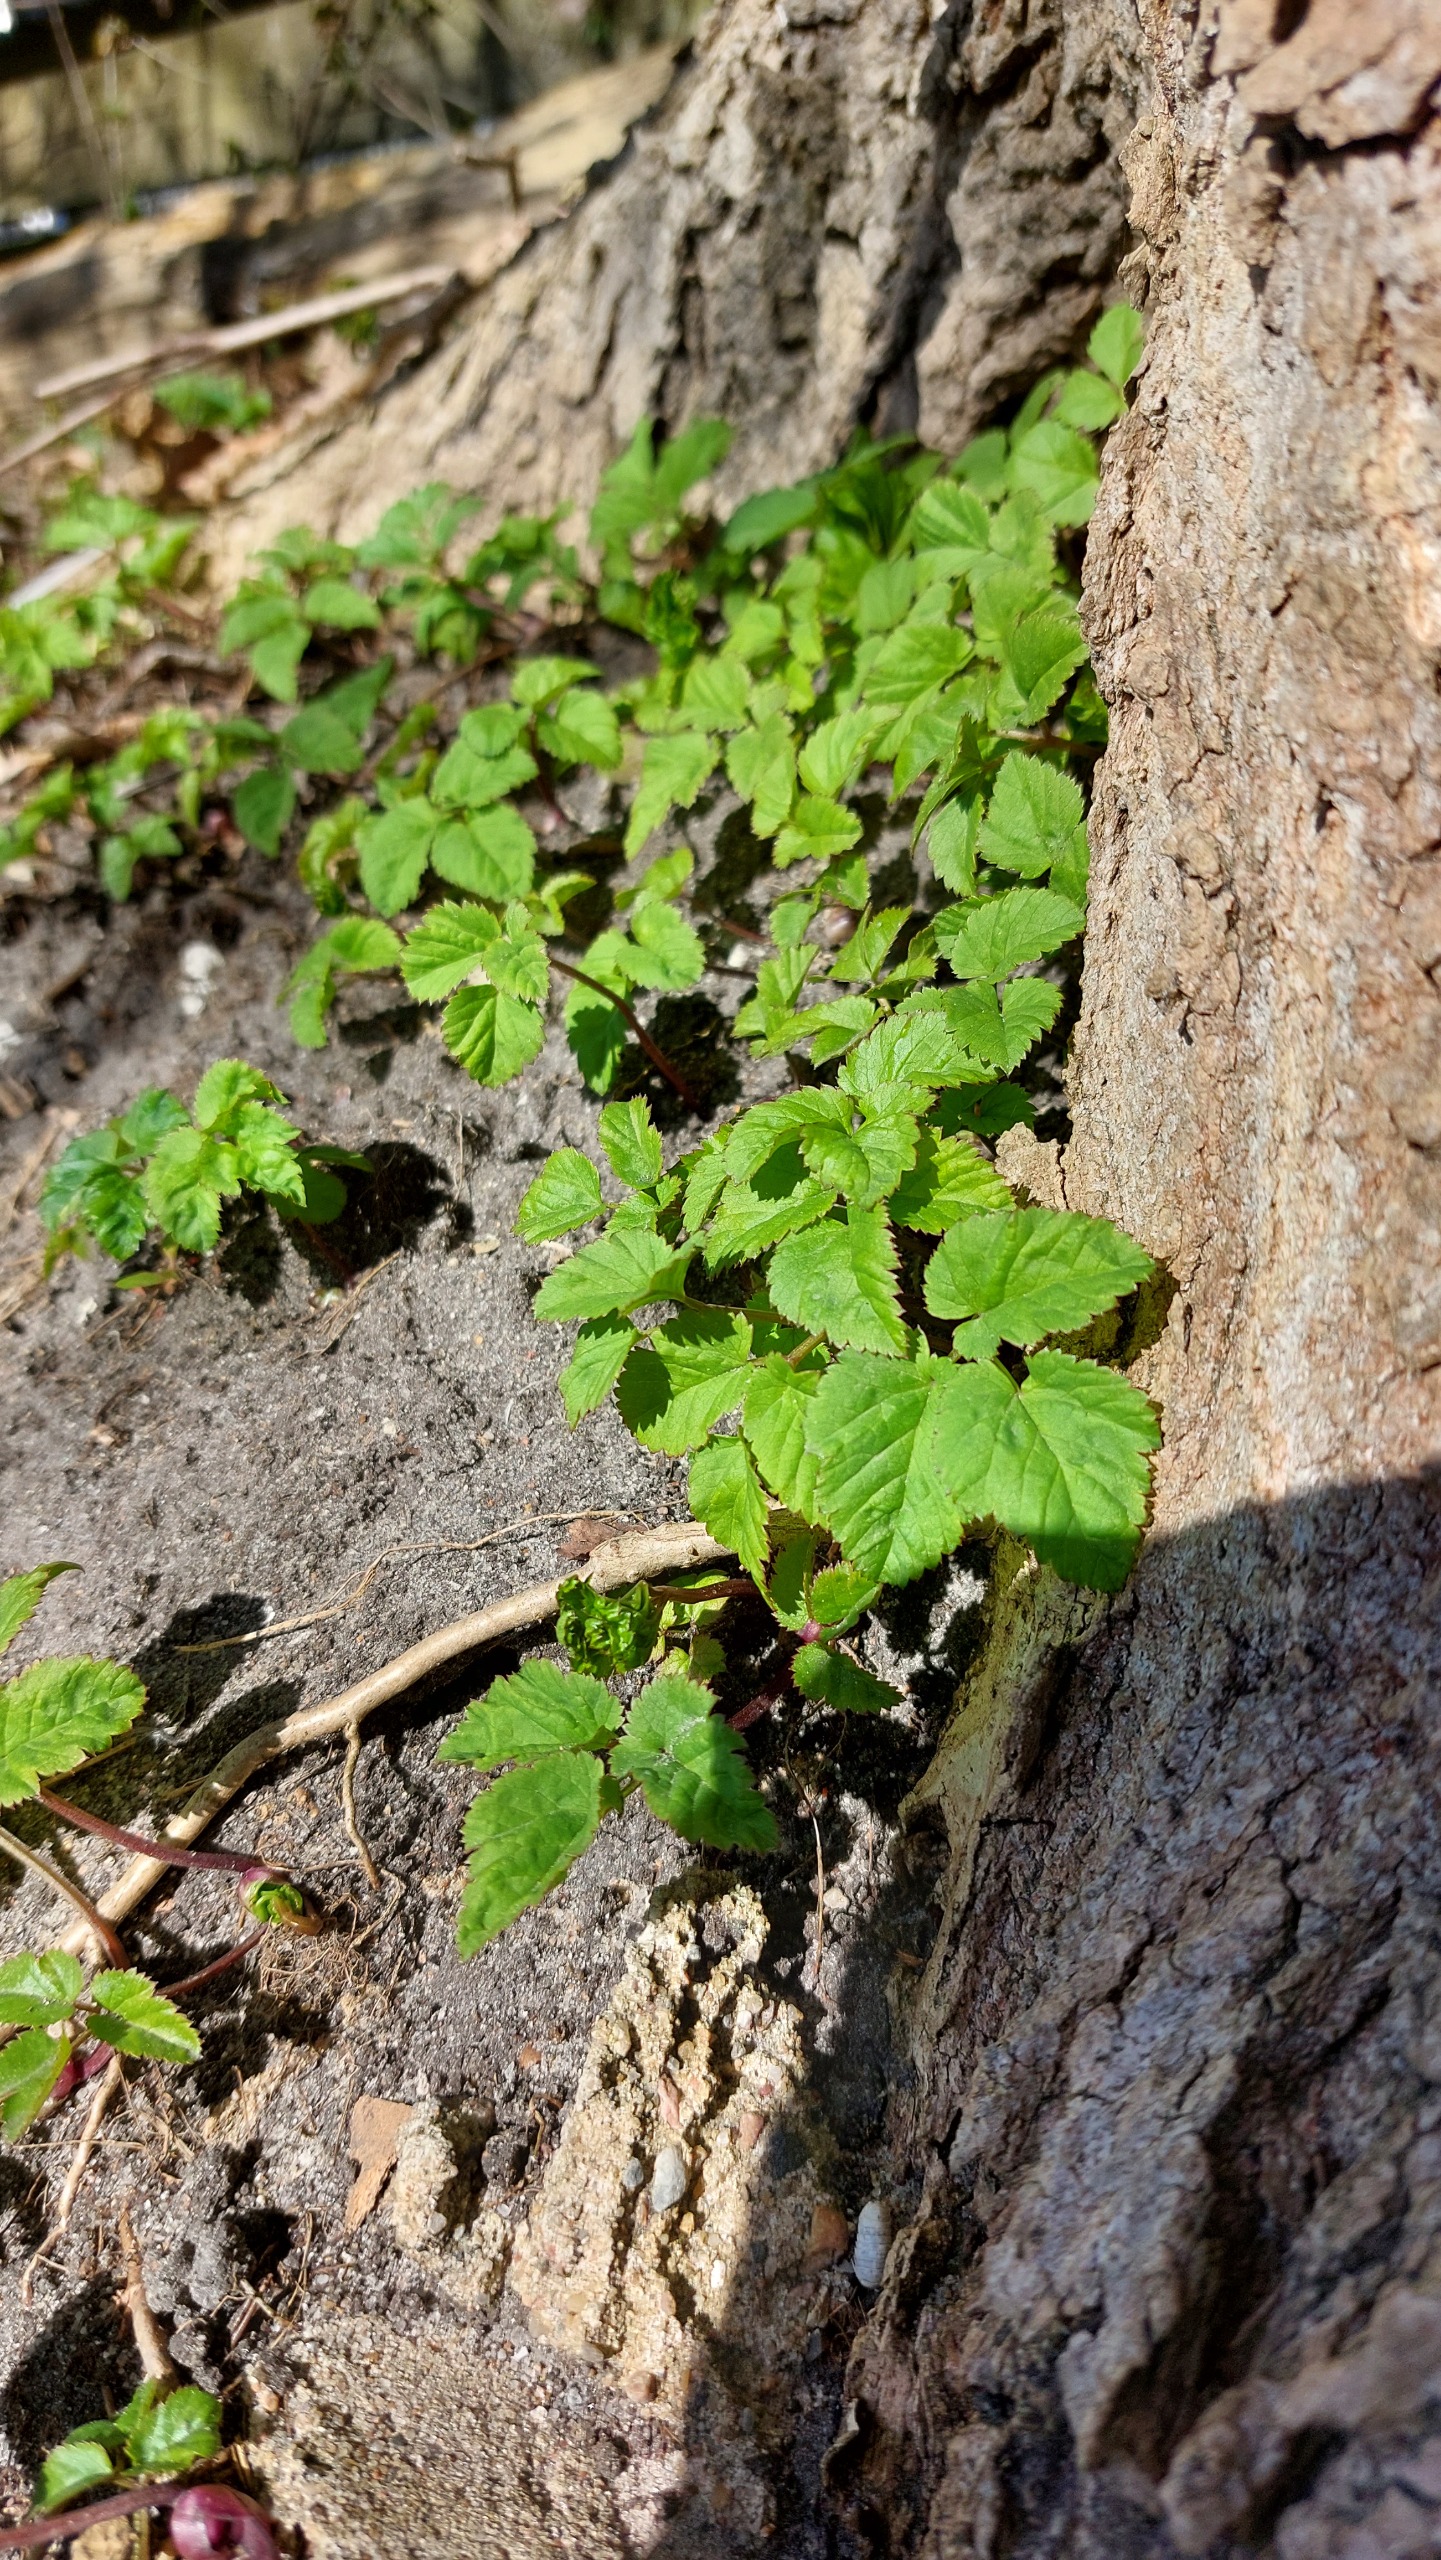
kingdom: Plantae
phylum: Tracheophyta
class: Magnoliopsida
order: Apiales
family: Apiaceae
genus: Aegopodium
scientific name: Aegopodium podagraria
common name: Skvalderkål
